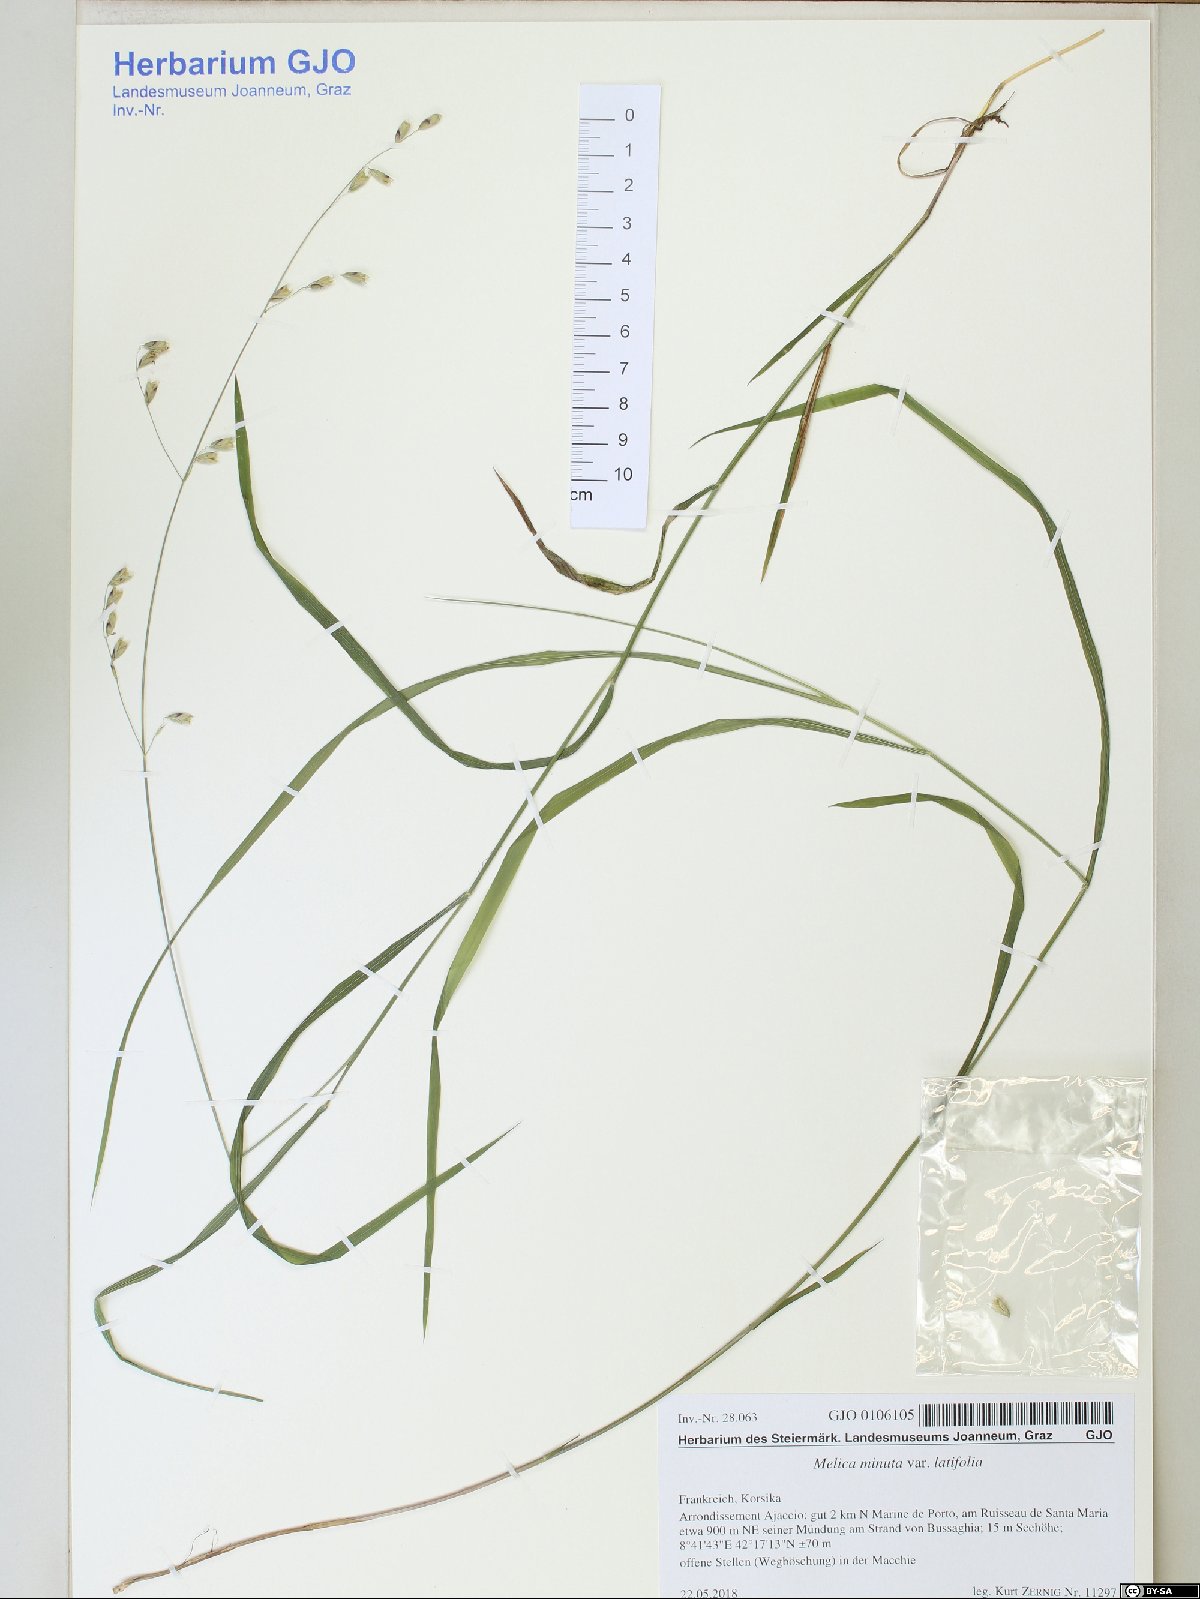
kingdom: Plantae
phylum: Tracheophyta
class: Liliopsida
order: Poales
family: Poaceae
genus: Melica
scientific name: Melica minuta
